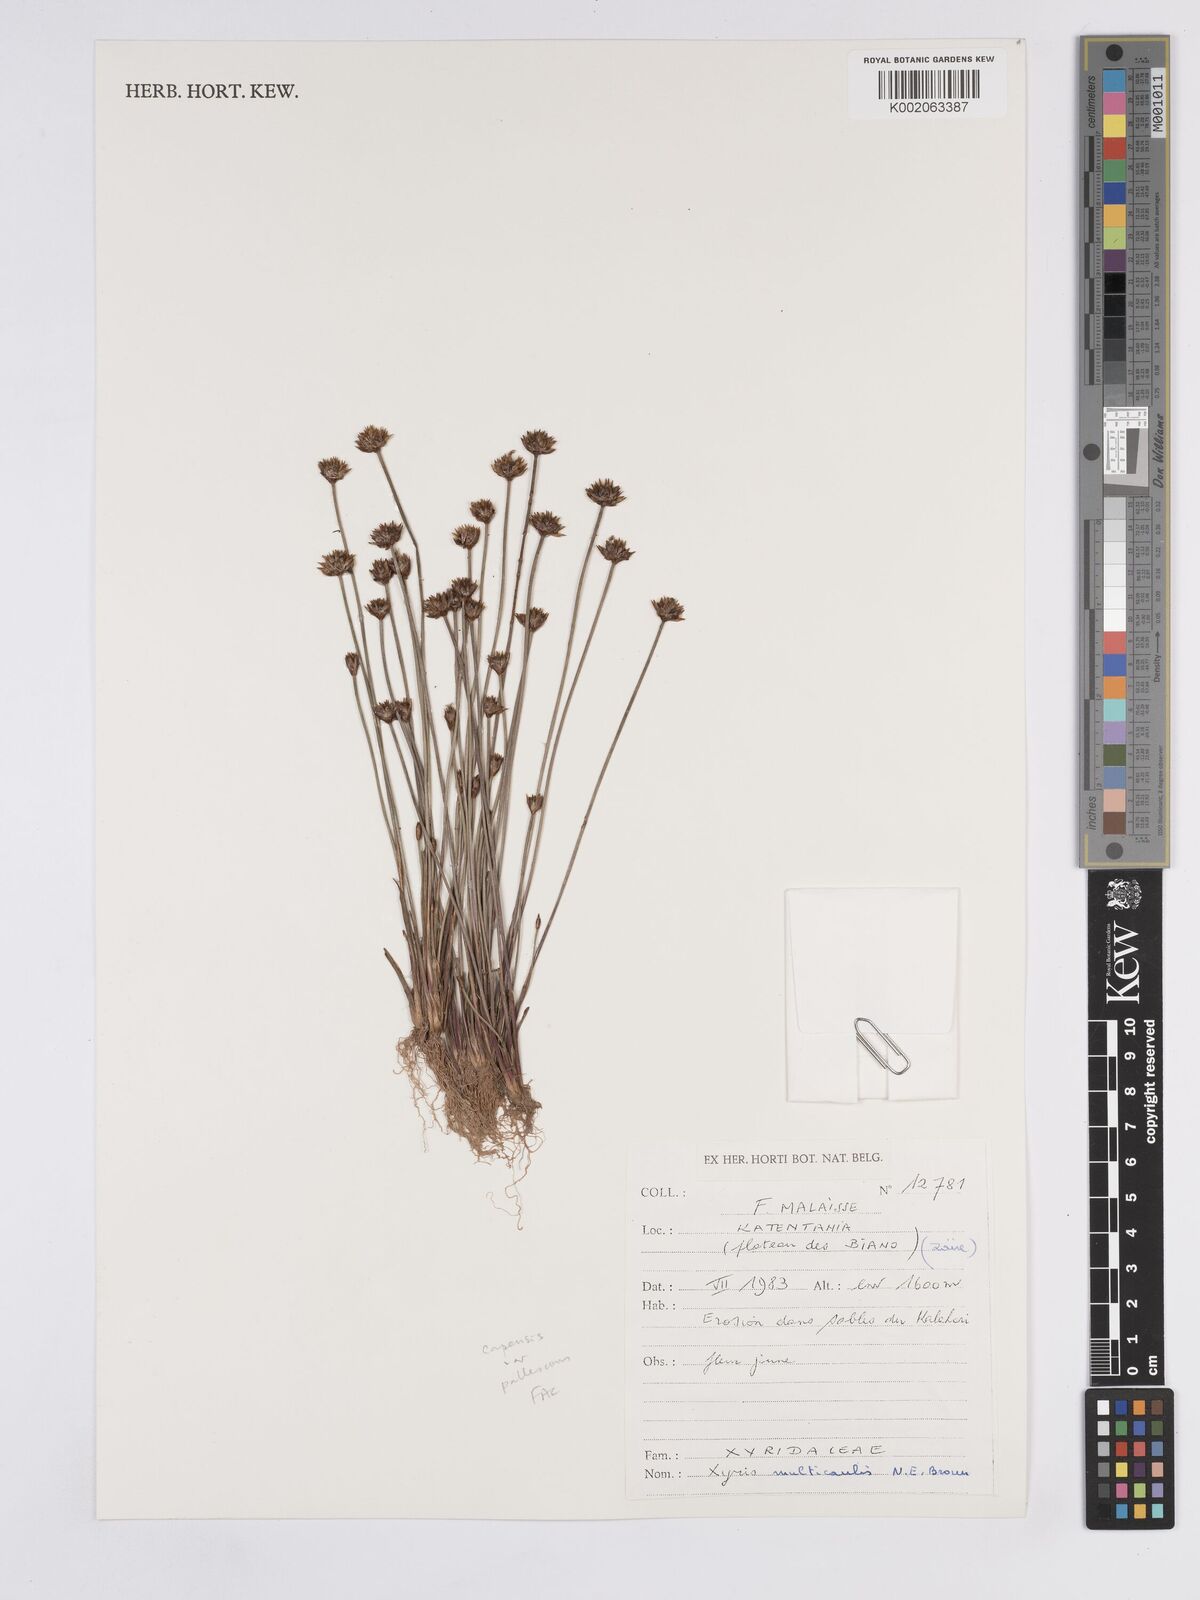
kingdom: Plantae
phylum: Tracheophyta
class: Liliopsida
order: Poales
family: Xyridaceae
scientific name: Xyridaceae
